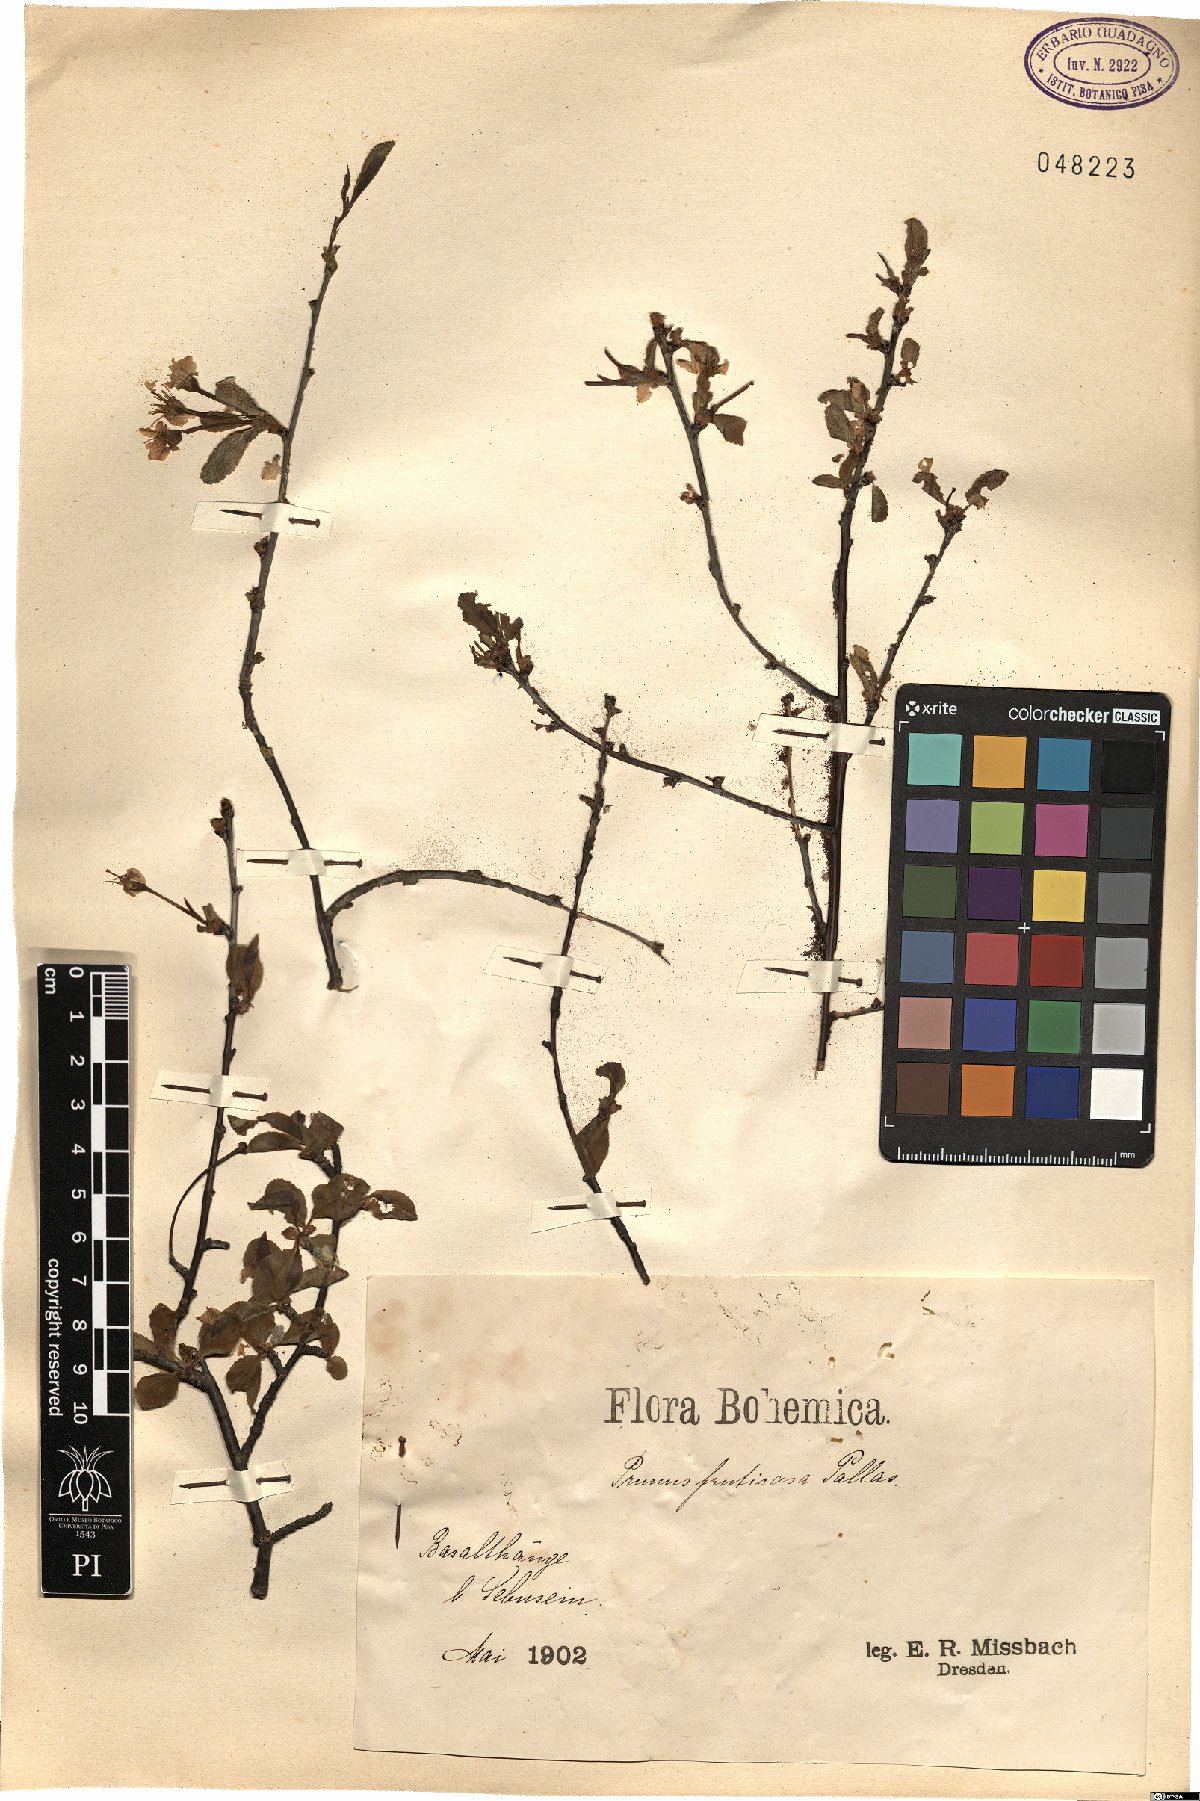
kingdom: Plantae
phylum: Tracheophyta
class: Magnoliopsida
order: Rosales
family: Rosaceae
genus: Prunus
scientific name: Prunus fruticosa
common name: European dwarf cherry
